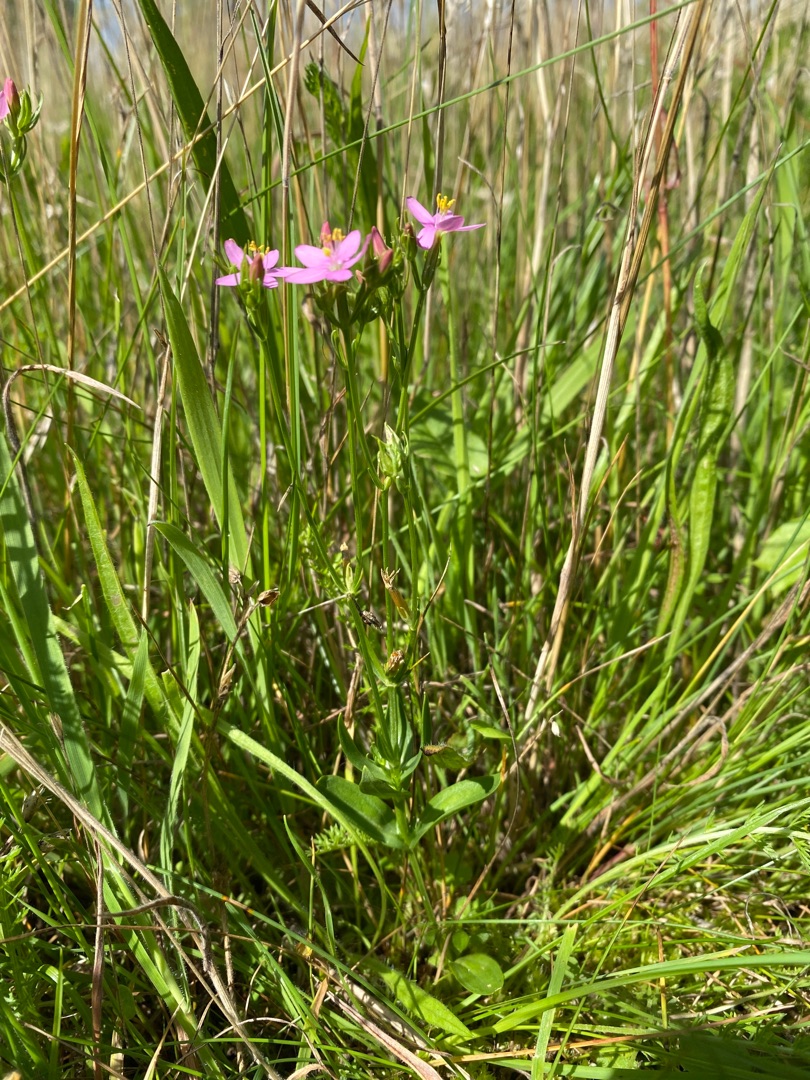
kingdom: Plantae
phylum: Tracheophyta
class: Magnoliopsida
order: Gentianales
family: Gentianaceae
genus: Centaurium
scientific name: Centaurium erythraea
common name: Mark-tusindgylden
